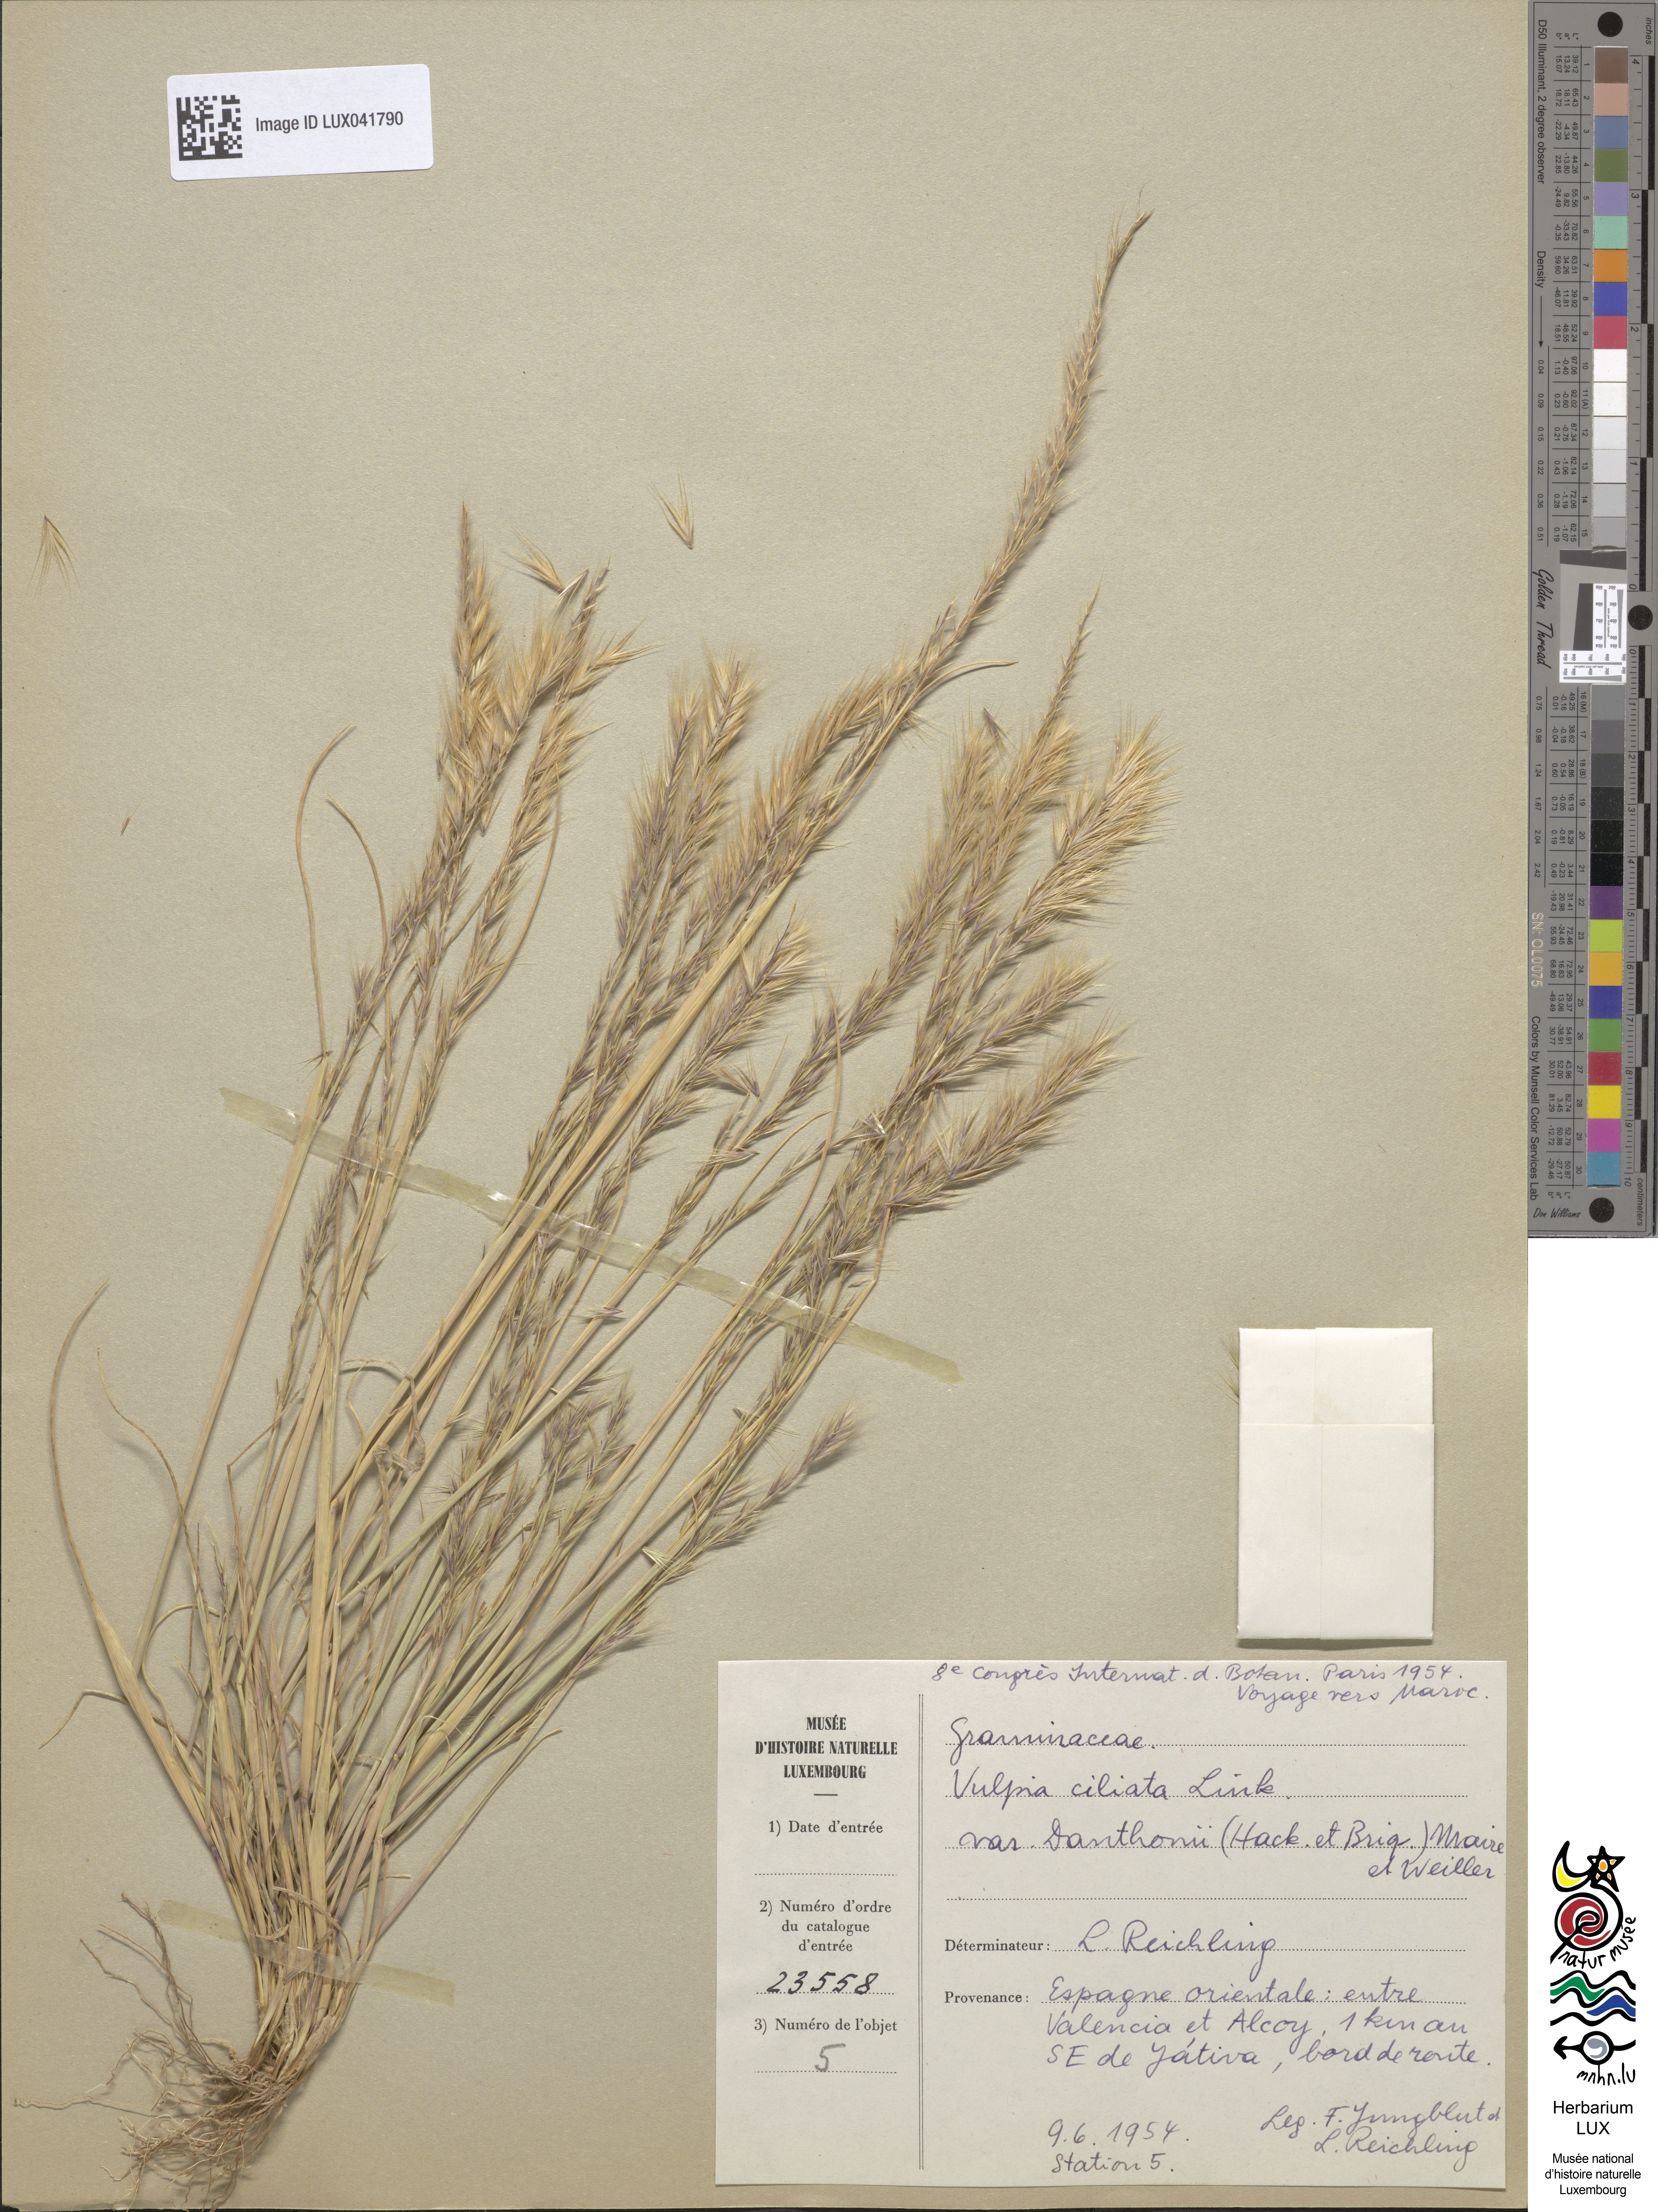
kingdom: Plantae
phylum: Tracheophyta
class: Liliopsida
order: Poales
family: Poaceae
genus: Festuca
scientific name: Festuca ambigua
